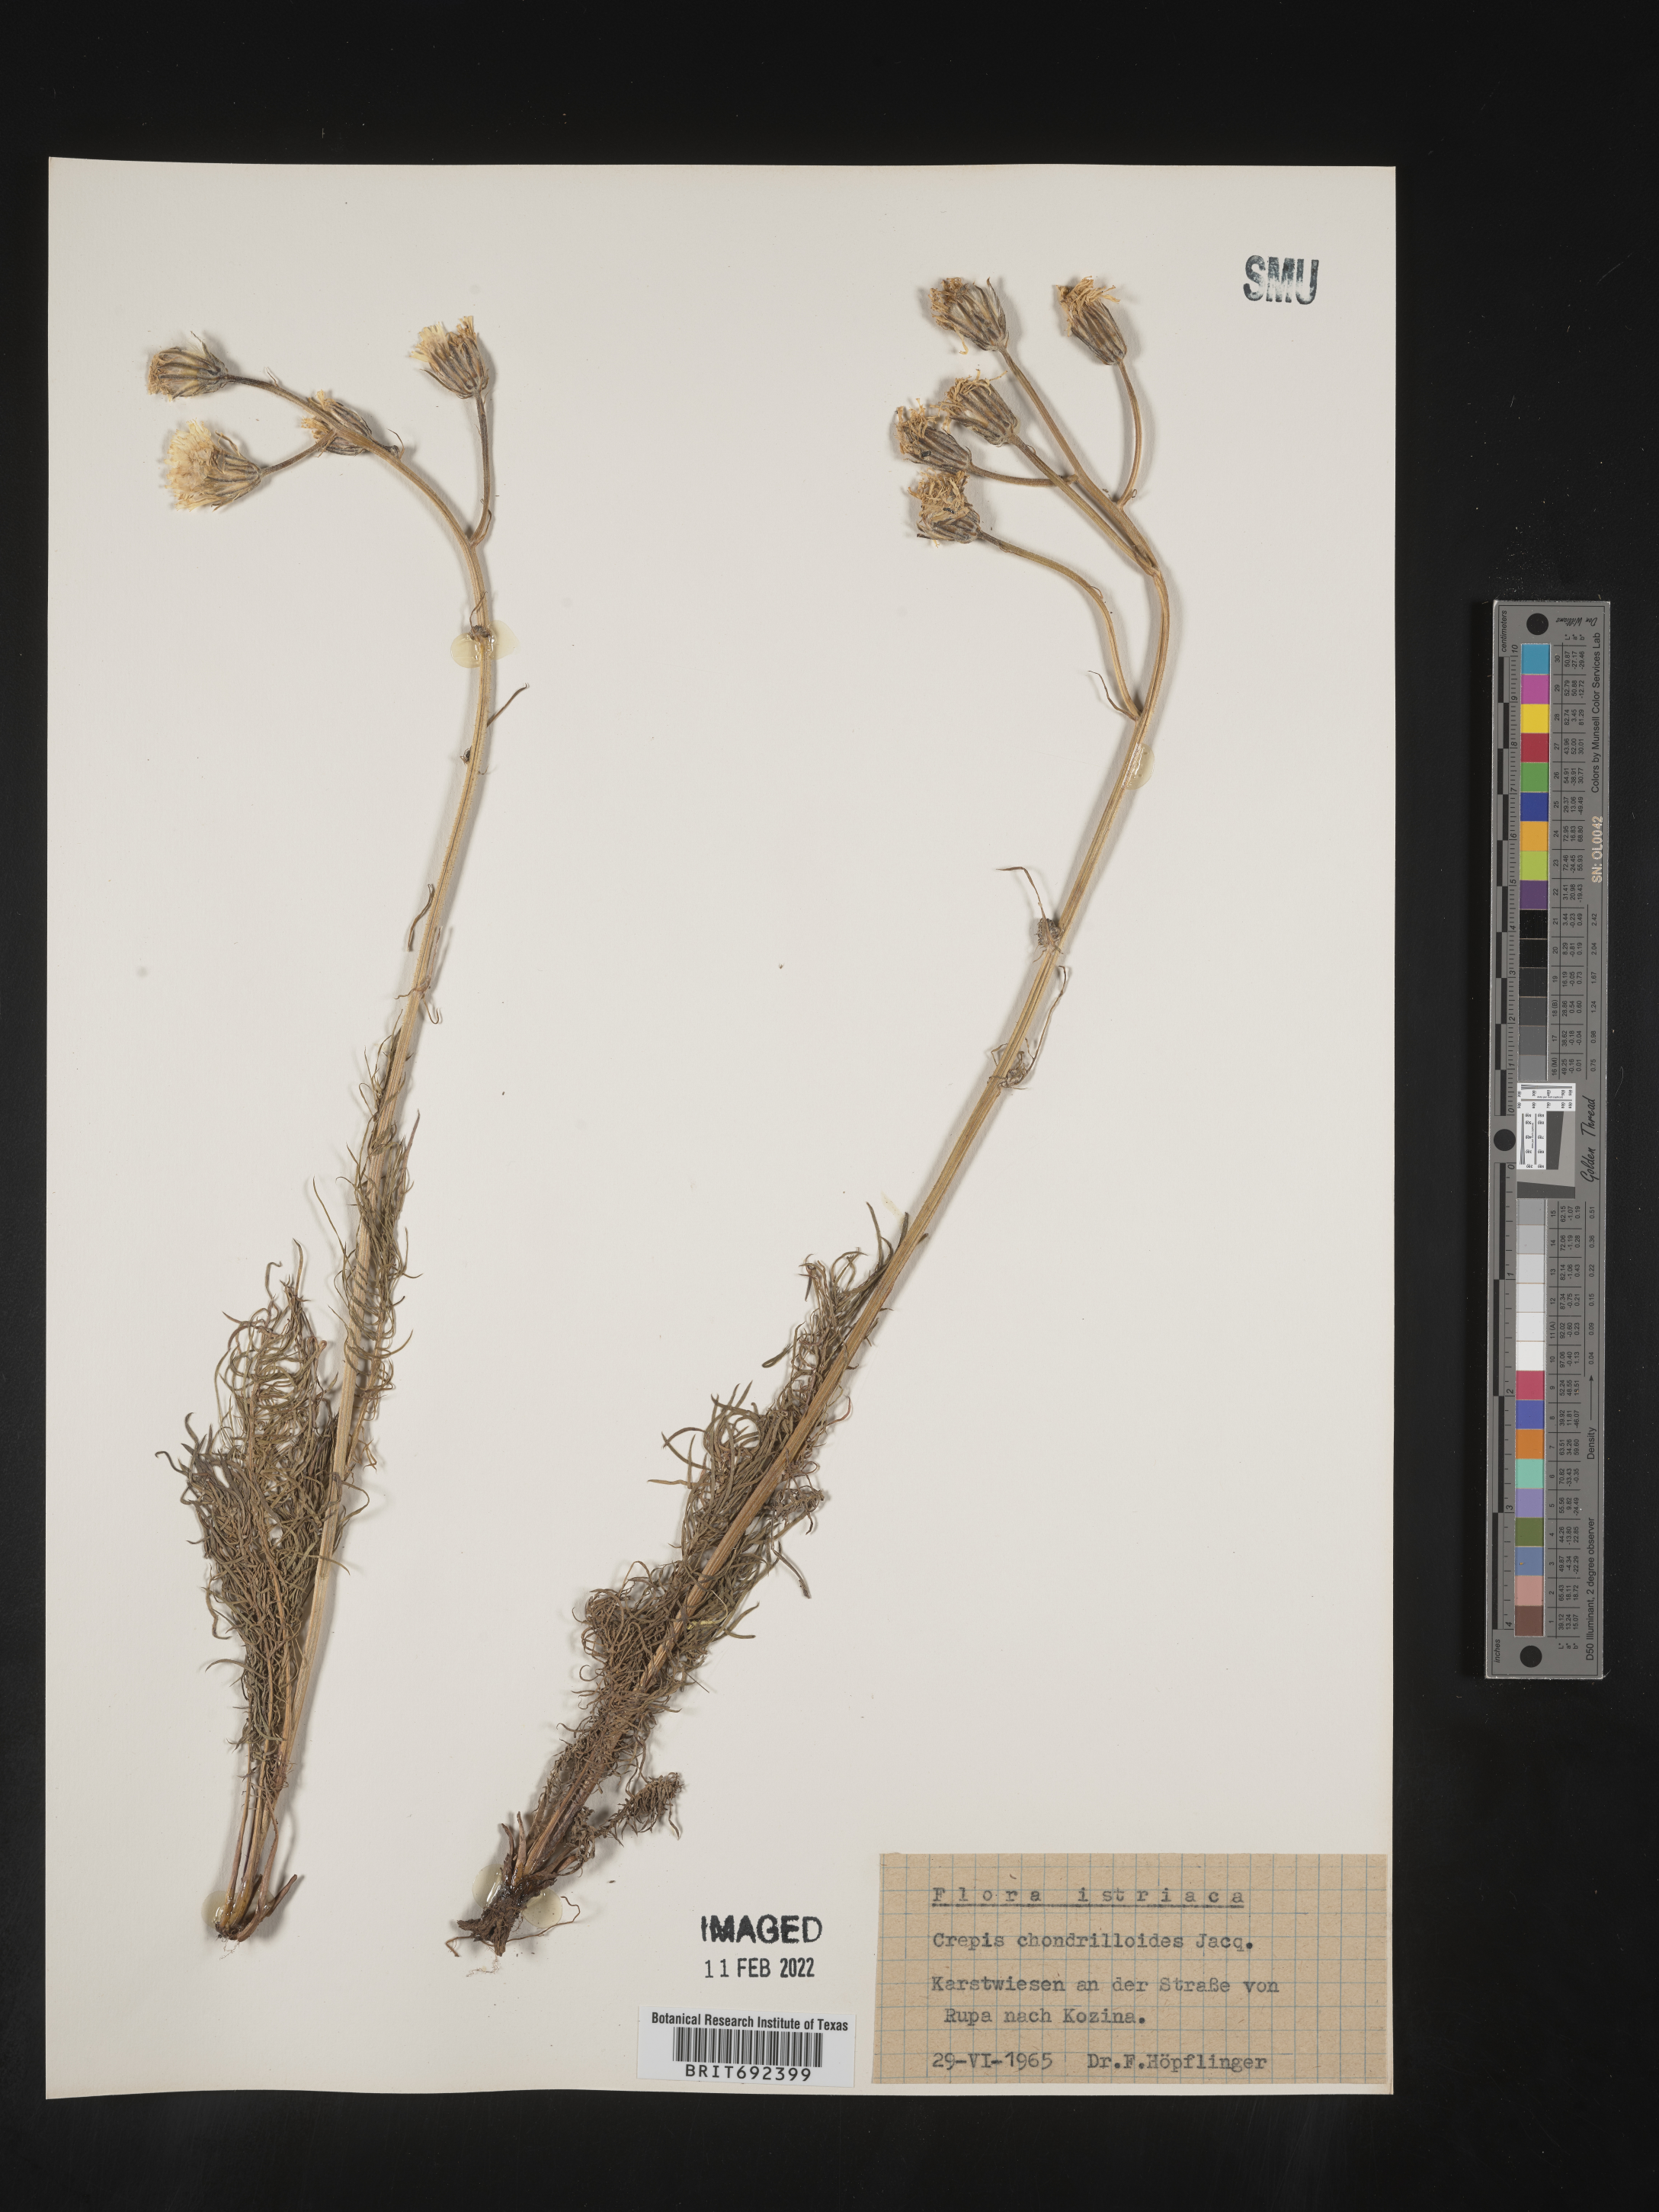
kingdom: Plantae
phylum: Tracheophyta
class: Magnoliopsida
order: Asterales
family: Asteraceae
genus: Crepis
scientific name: Crepis
